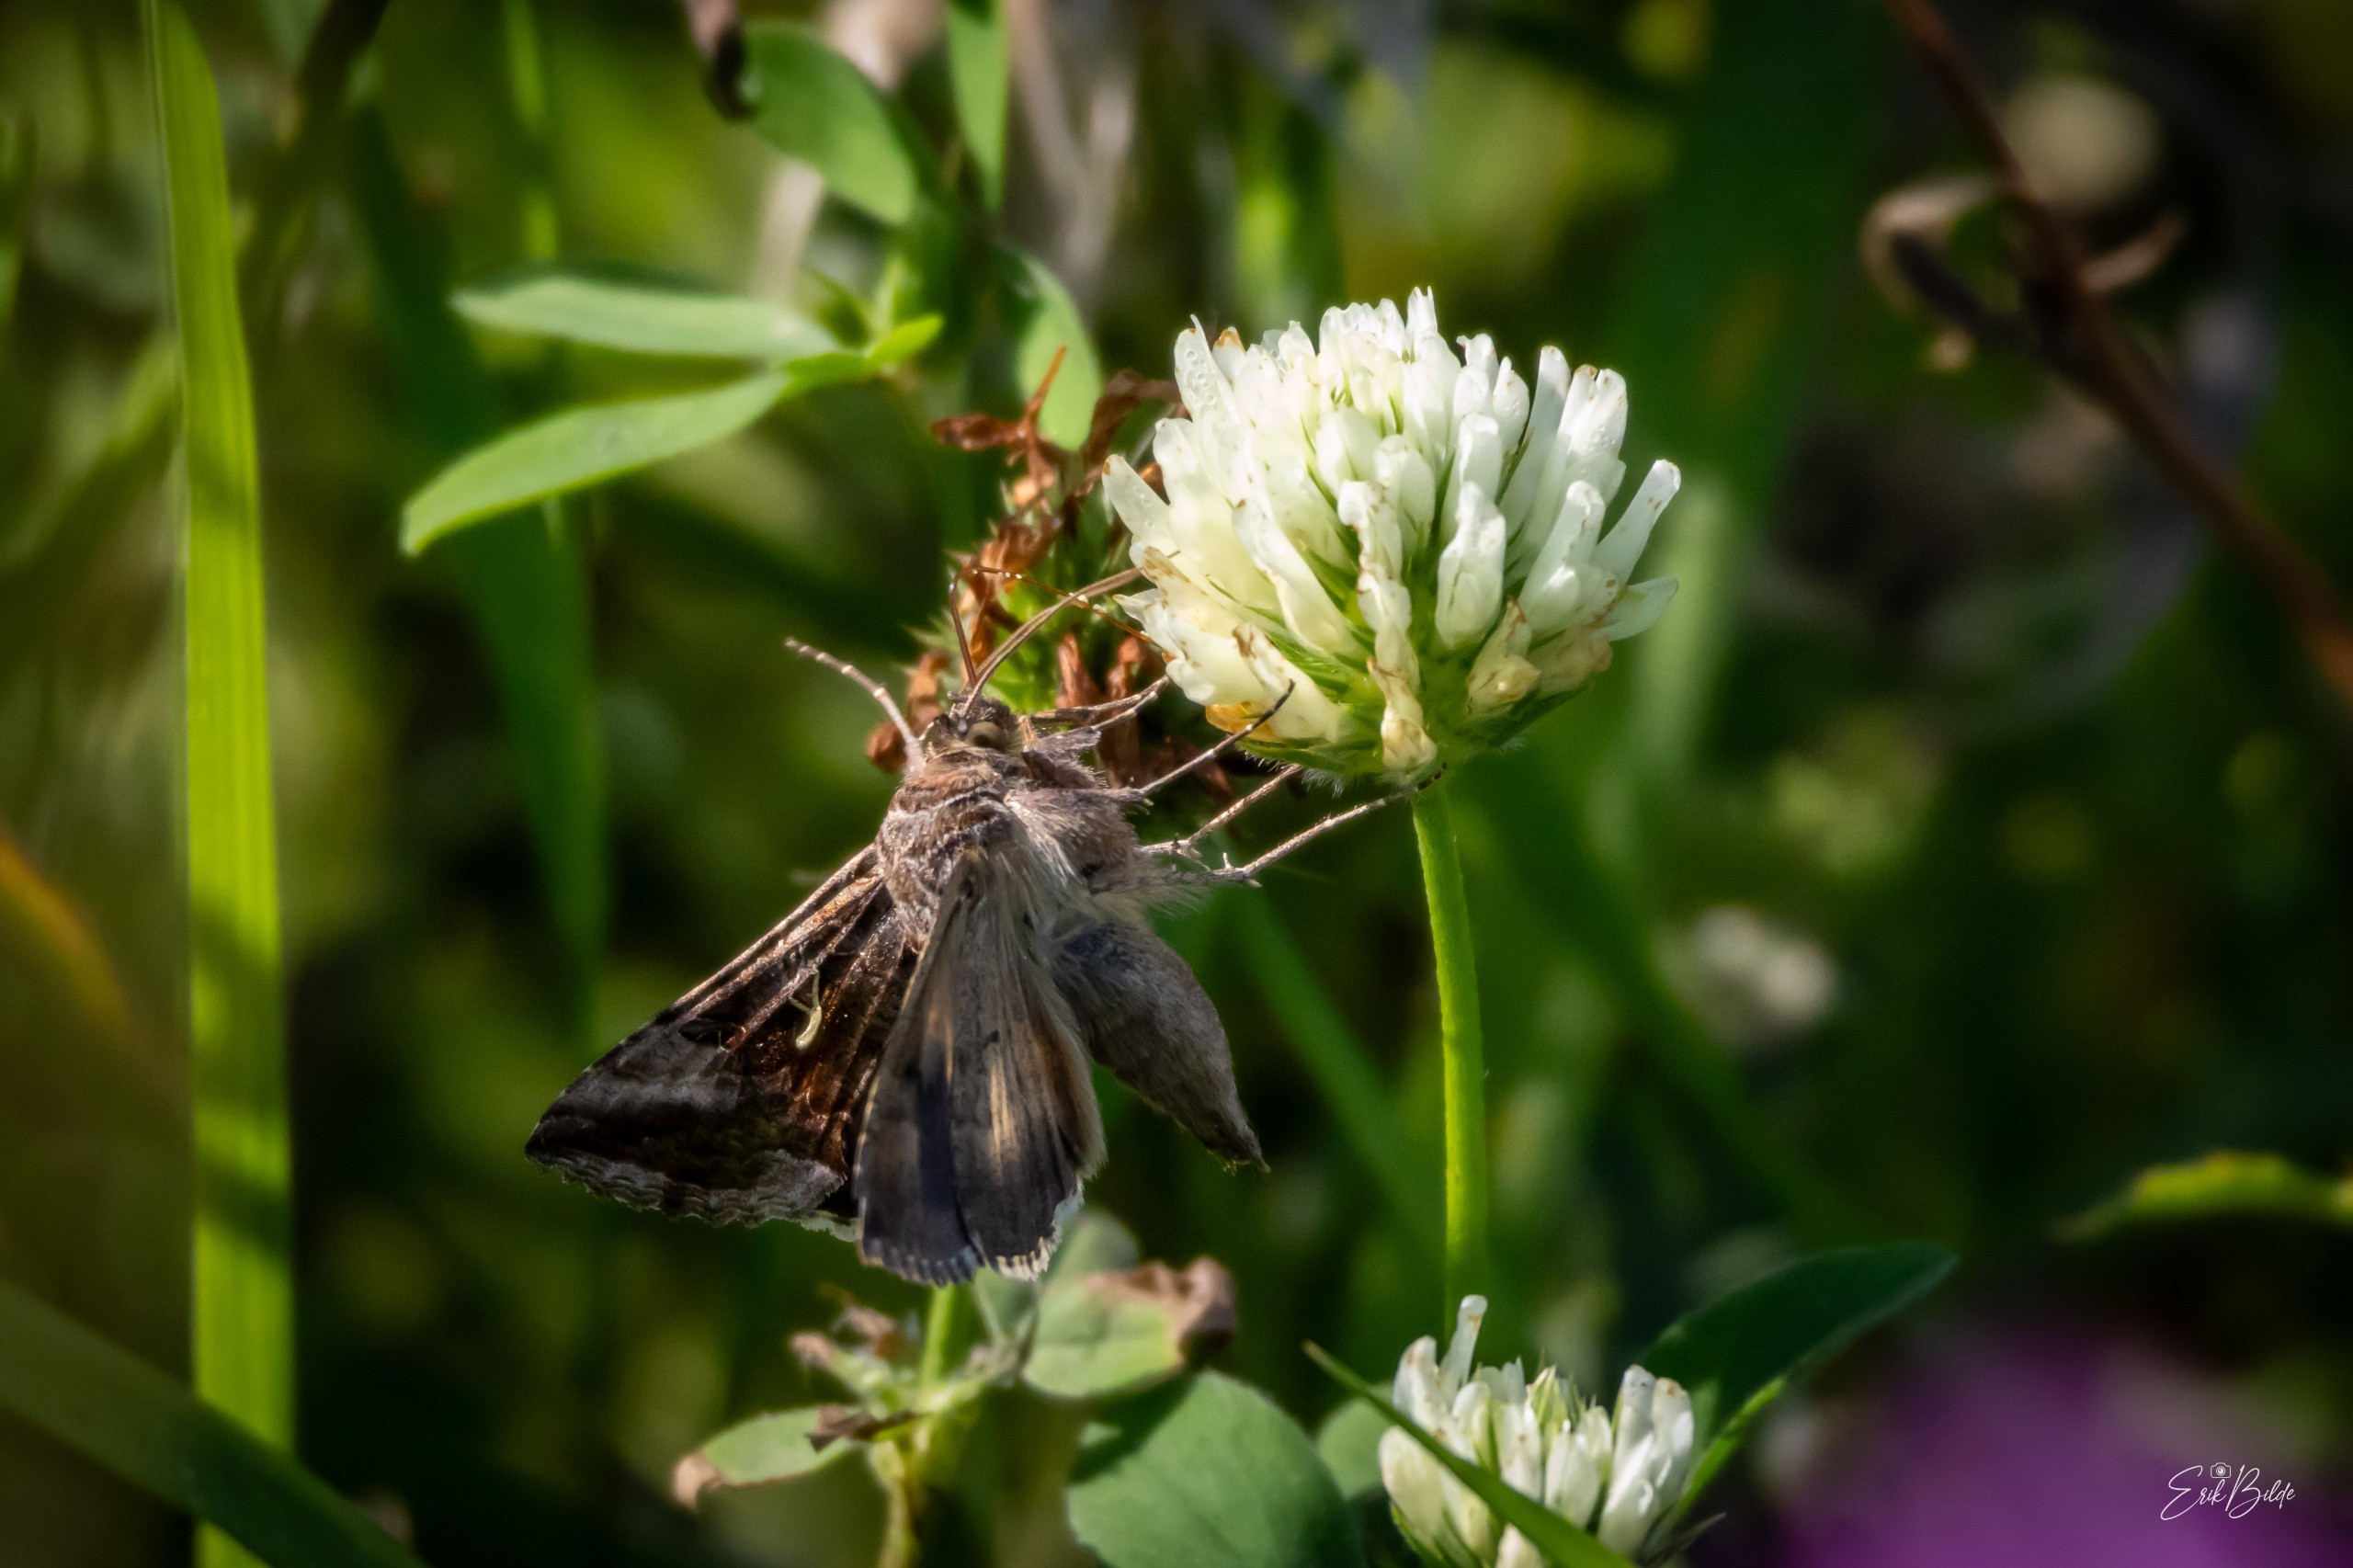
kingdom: Animalia
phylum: Arthropoda
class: Insecta
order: Lepidoptera
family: Noctuidae
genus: Autographa
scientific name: Autographa gamma
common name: Gammaugle
